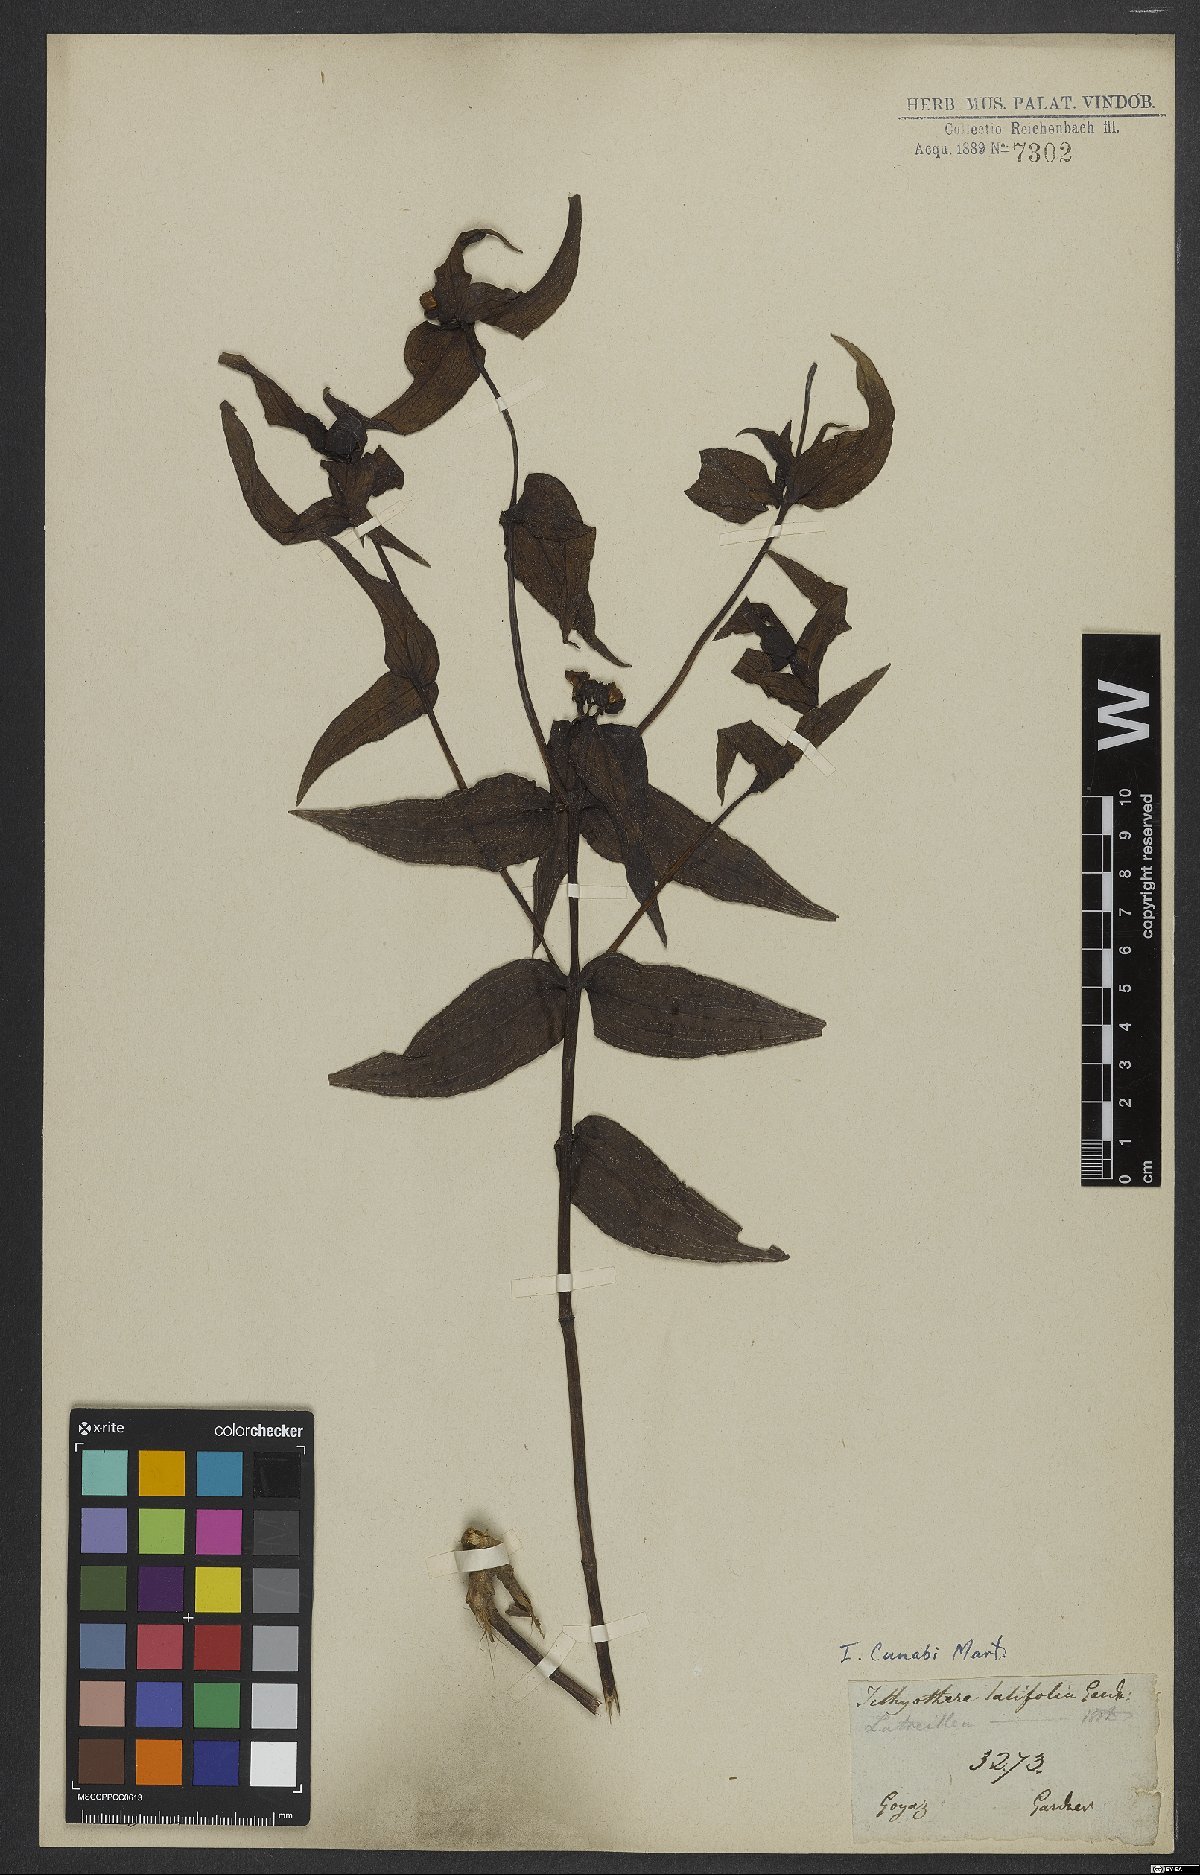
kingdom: Plantae
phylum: Tracheophyta
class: Magnoliopsida
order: Asterales
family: Asteraceae
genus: Ichthyothere
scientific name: Ichthyothere cunabi
